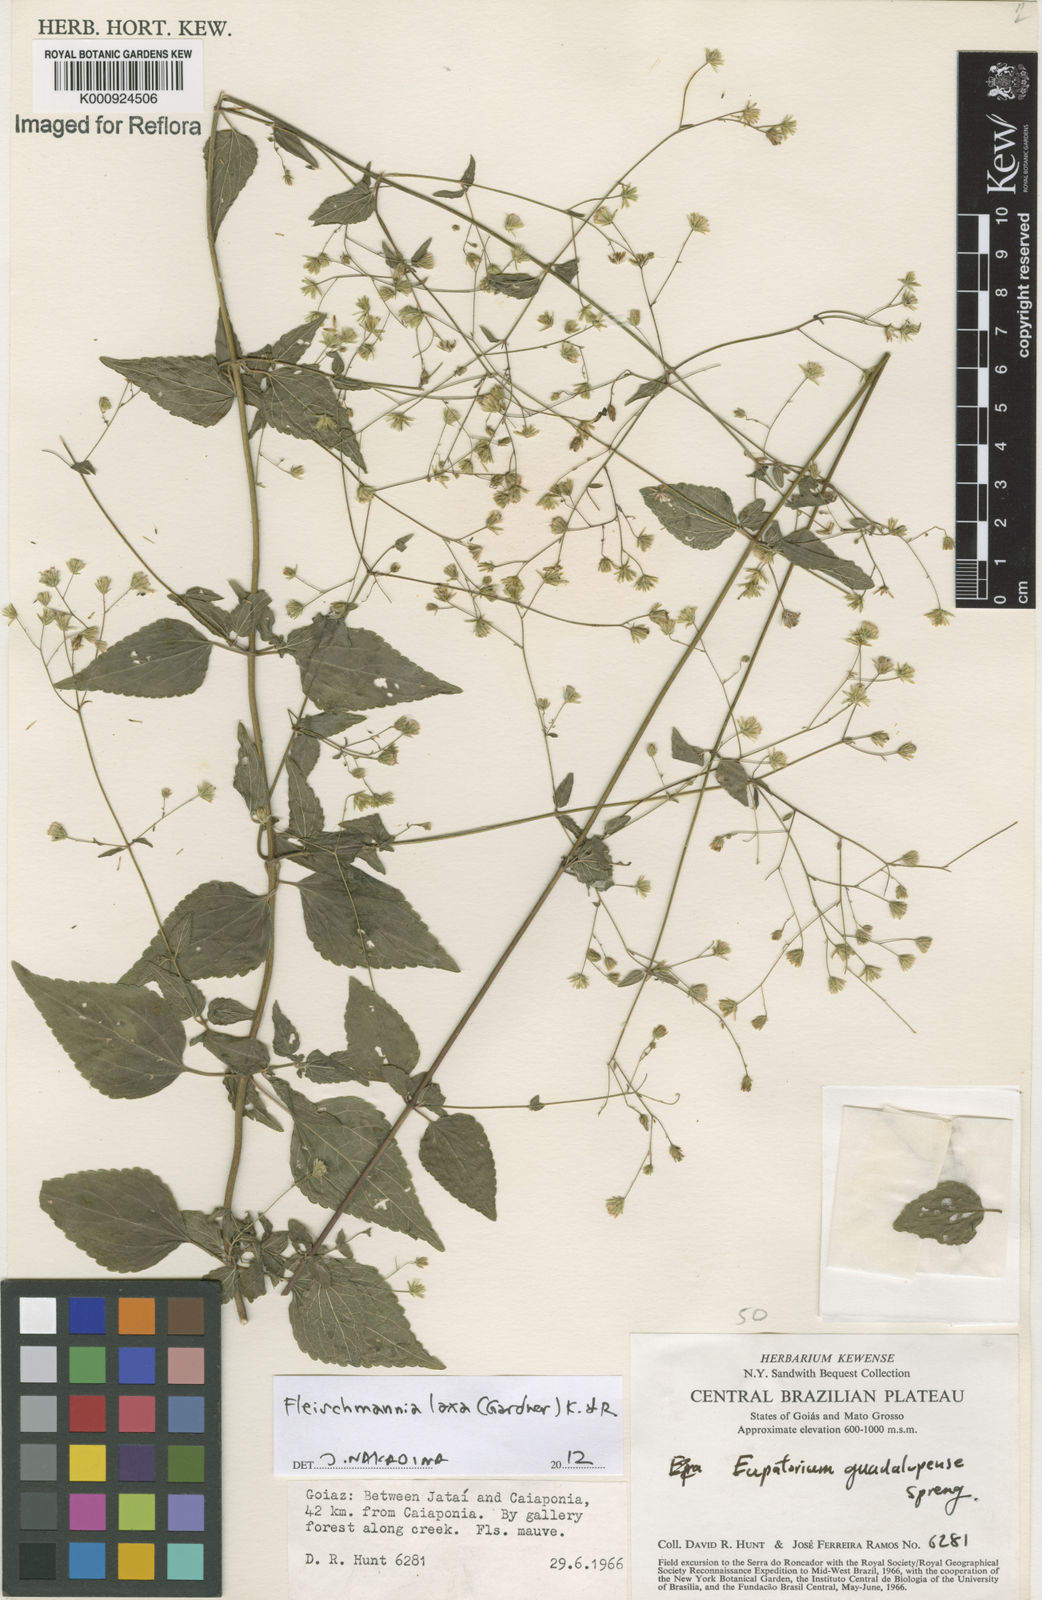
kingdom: Plantae
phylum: Tracheophyta
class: Magnoliopsida
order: Asterales
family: Asteraceae
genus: Fleischmannia
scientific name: Fleischmannia laxa
